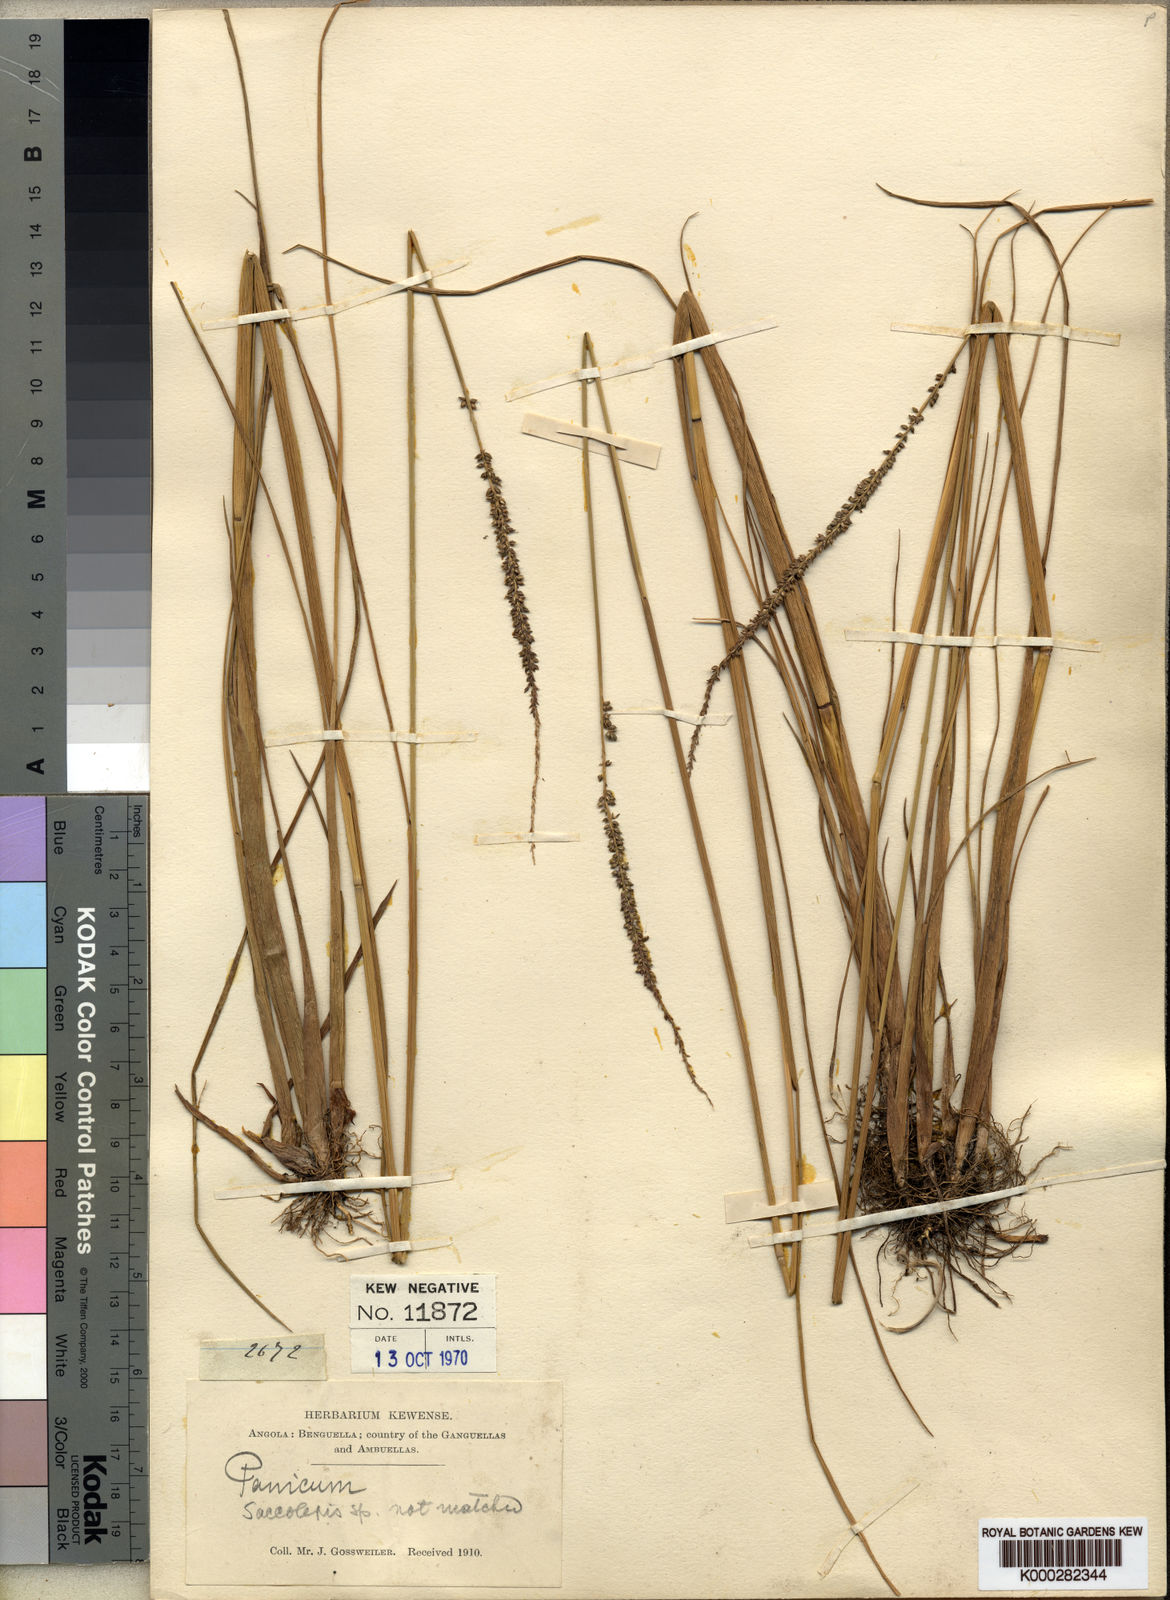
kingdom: Plantae
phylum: Tracheophyta
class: Liliopsida
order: Poales
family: Poaceae
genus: Sacciolepis
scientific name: Sacciolepis typhura
